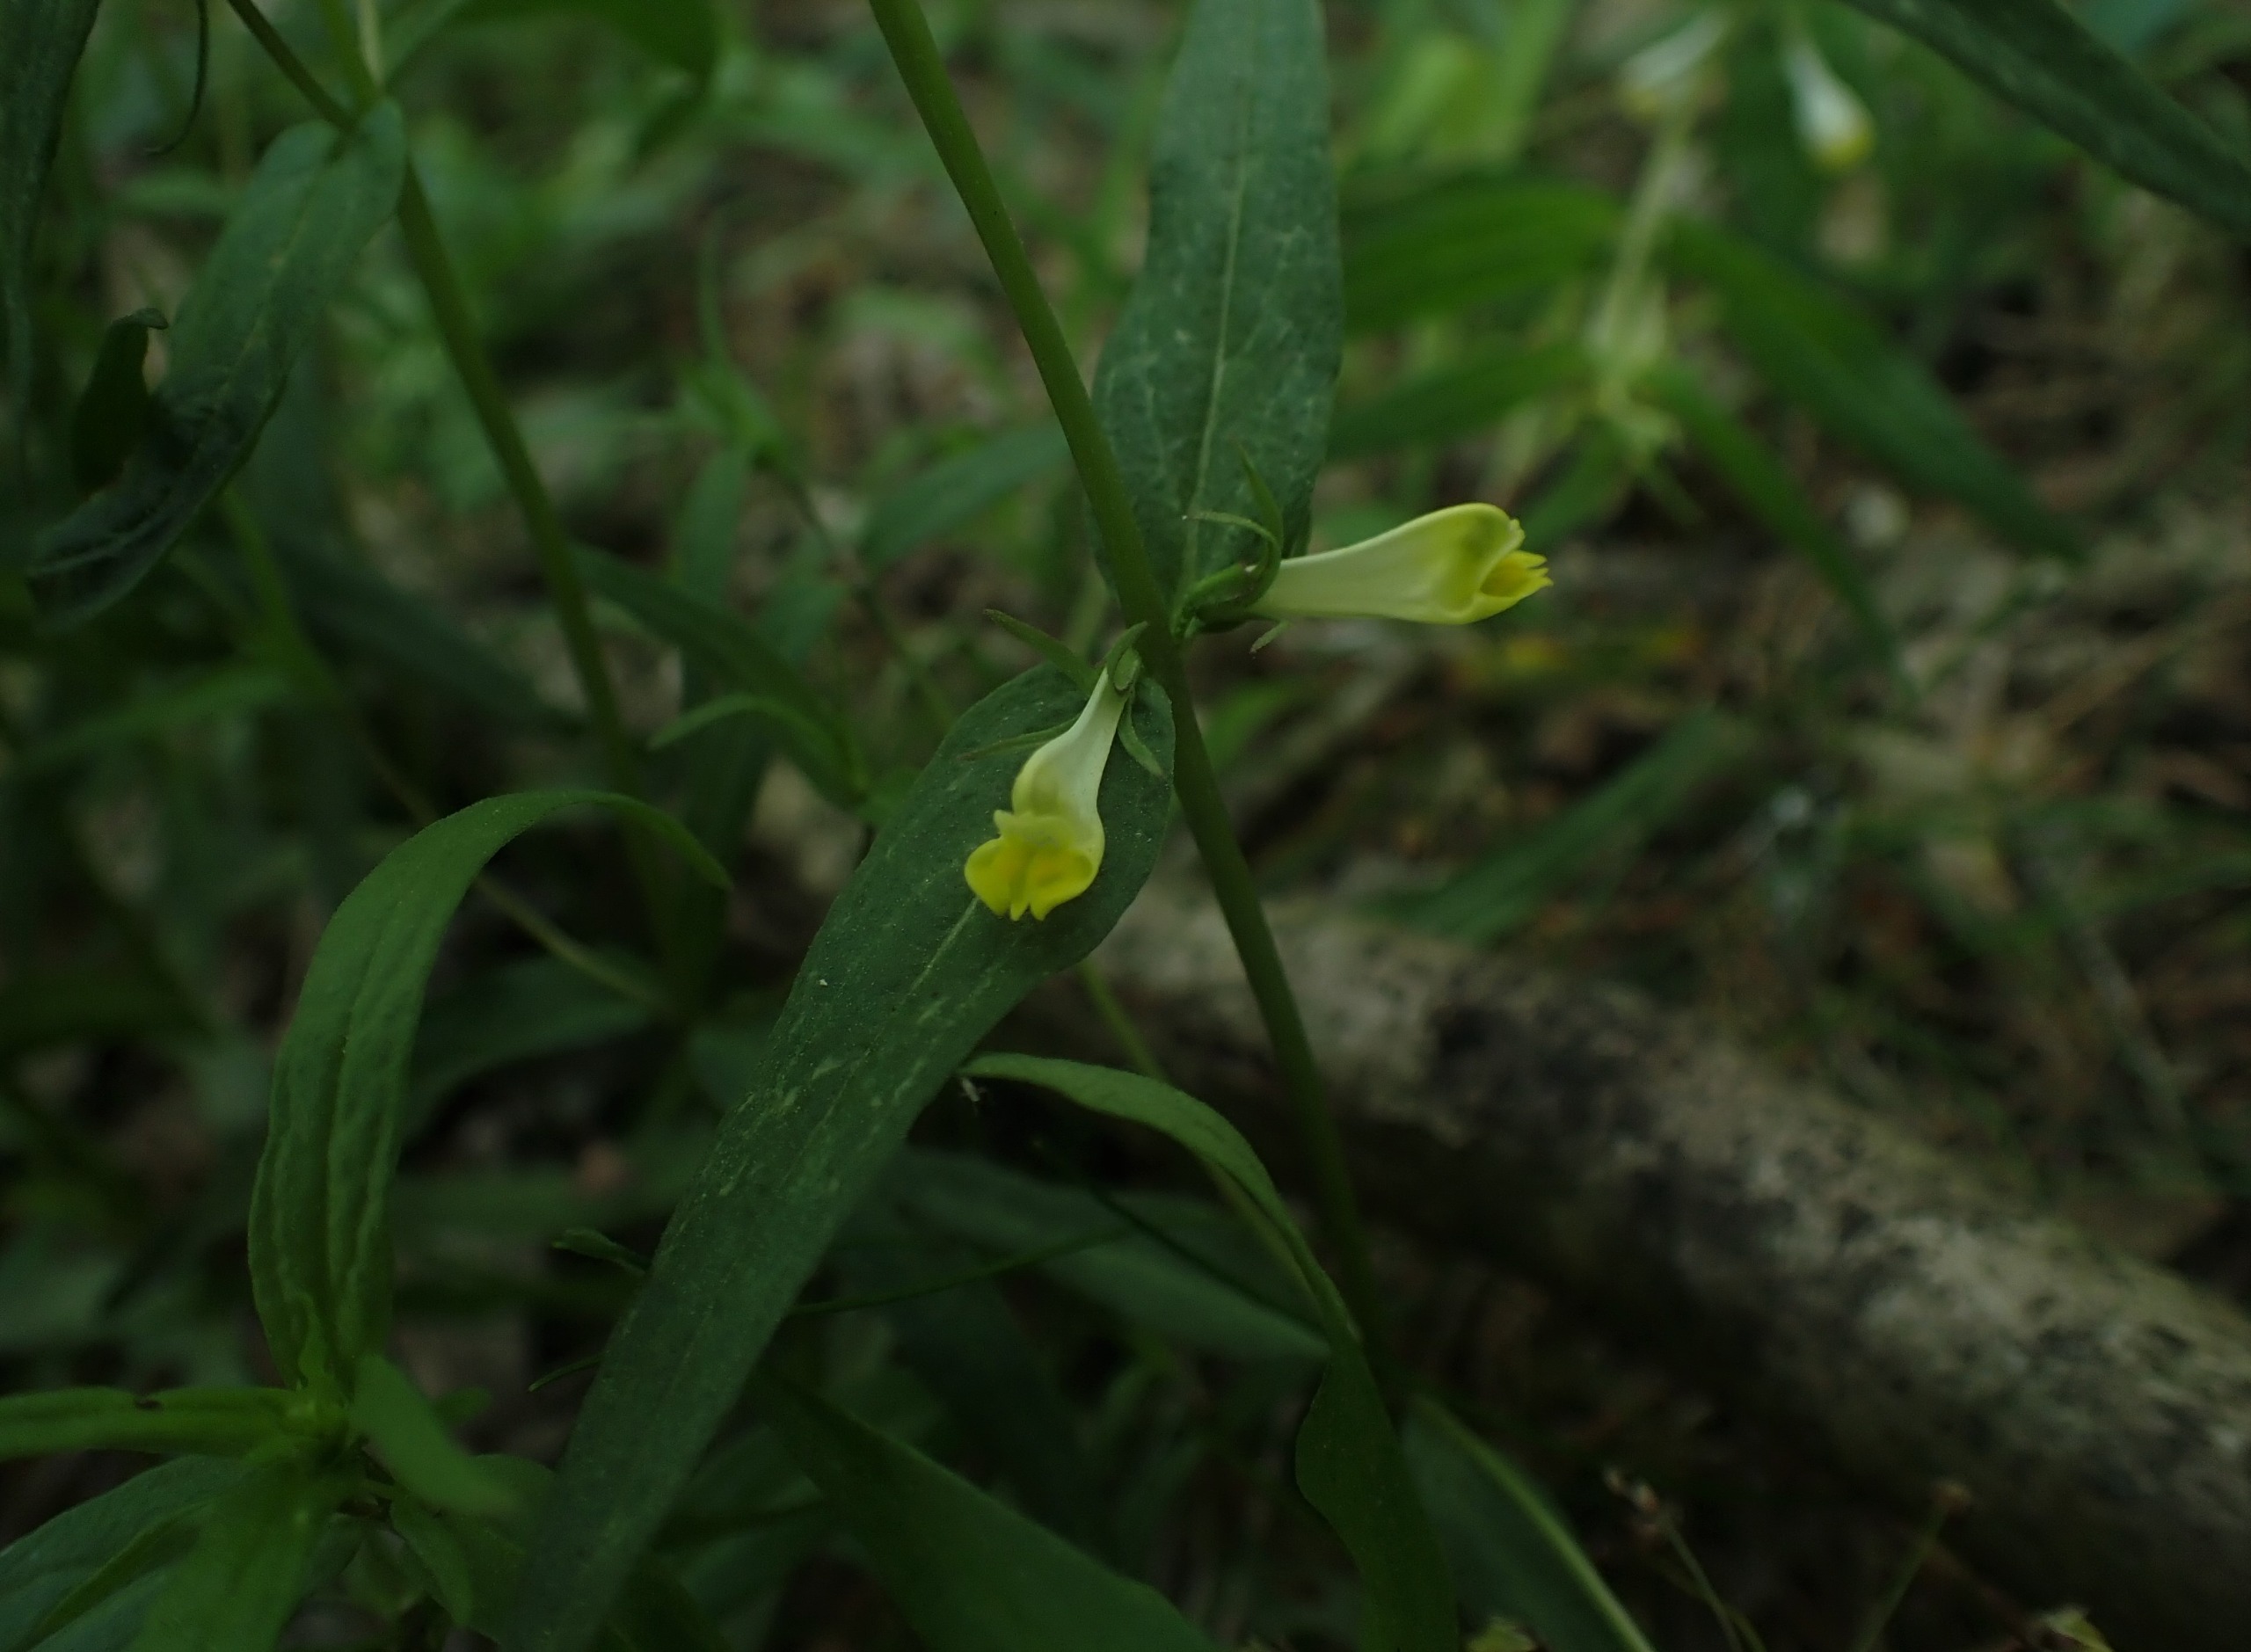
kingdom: Plantae
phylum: Tracheophyta
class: Magnoliopsida
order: Lamiales
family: Orobanchaceae
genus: Melampyrum
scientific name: Melampyrum pratense
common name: Almindelig kohvede
